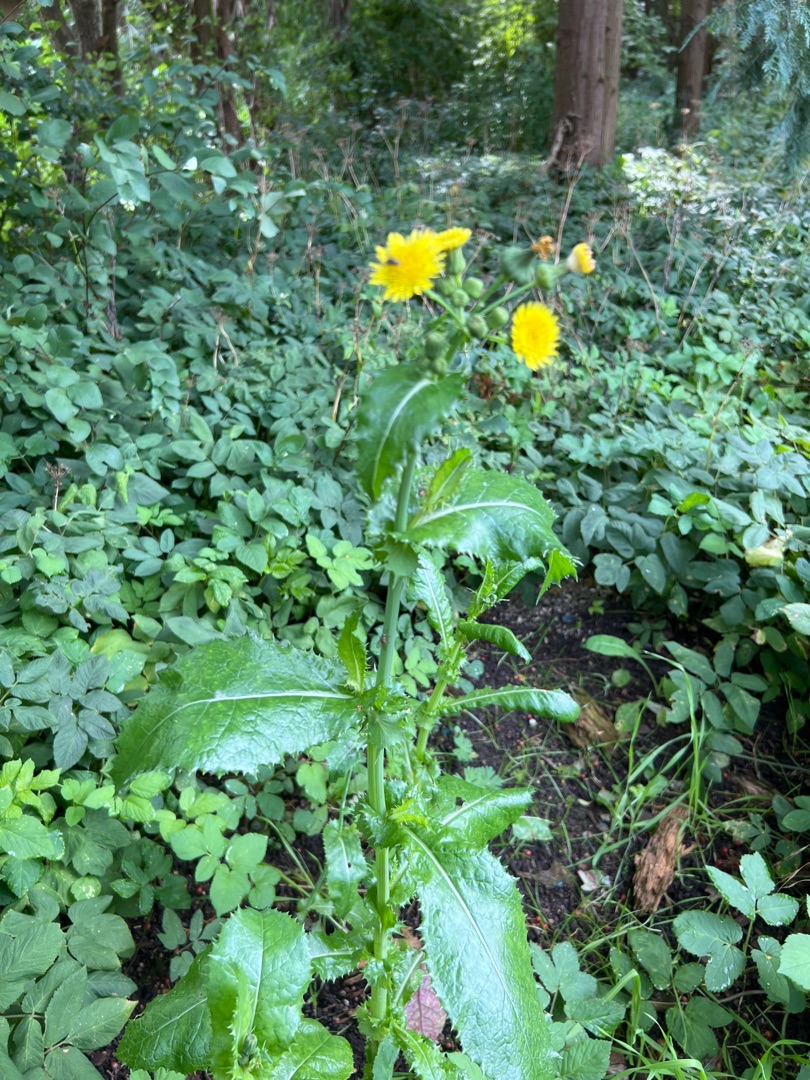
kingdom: Plantae
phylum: Tracheophyta
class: Magnoliopsida
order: Asterales
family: Asteraceae
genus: Sonchus
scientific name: Sonchus asper
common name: Ru svinemælk
